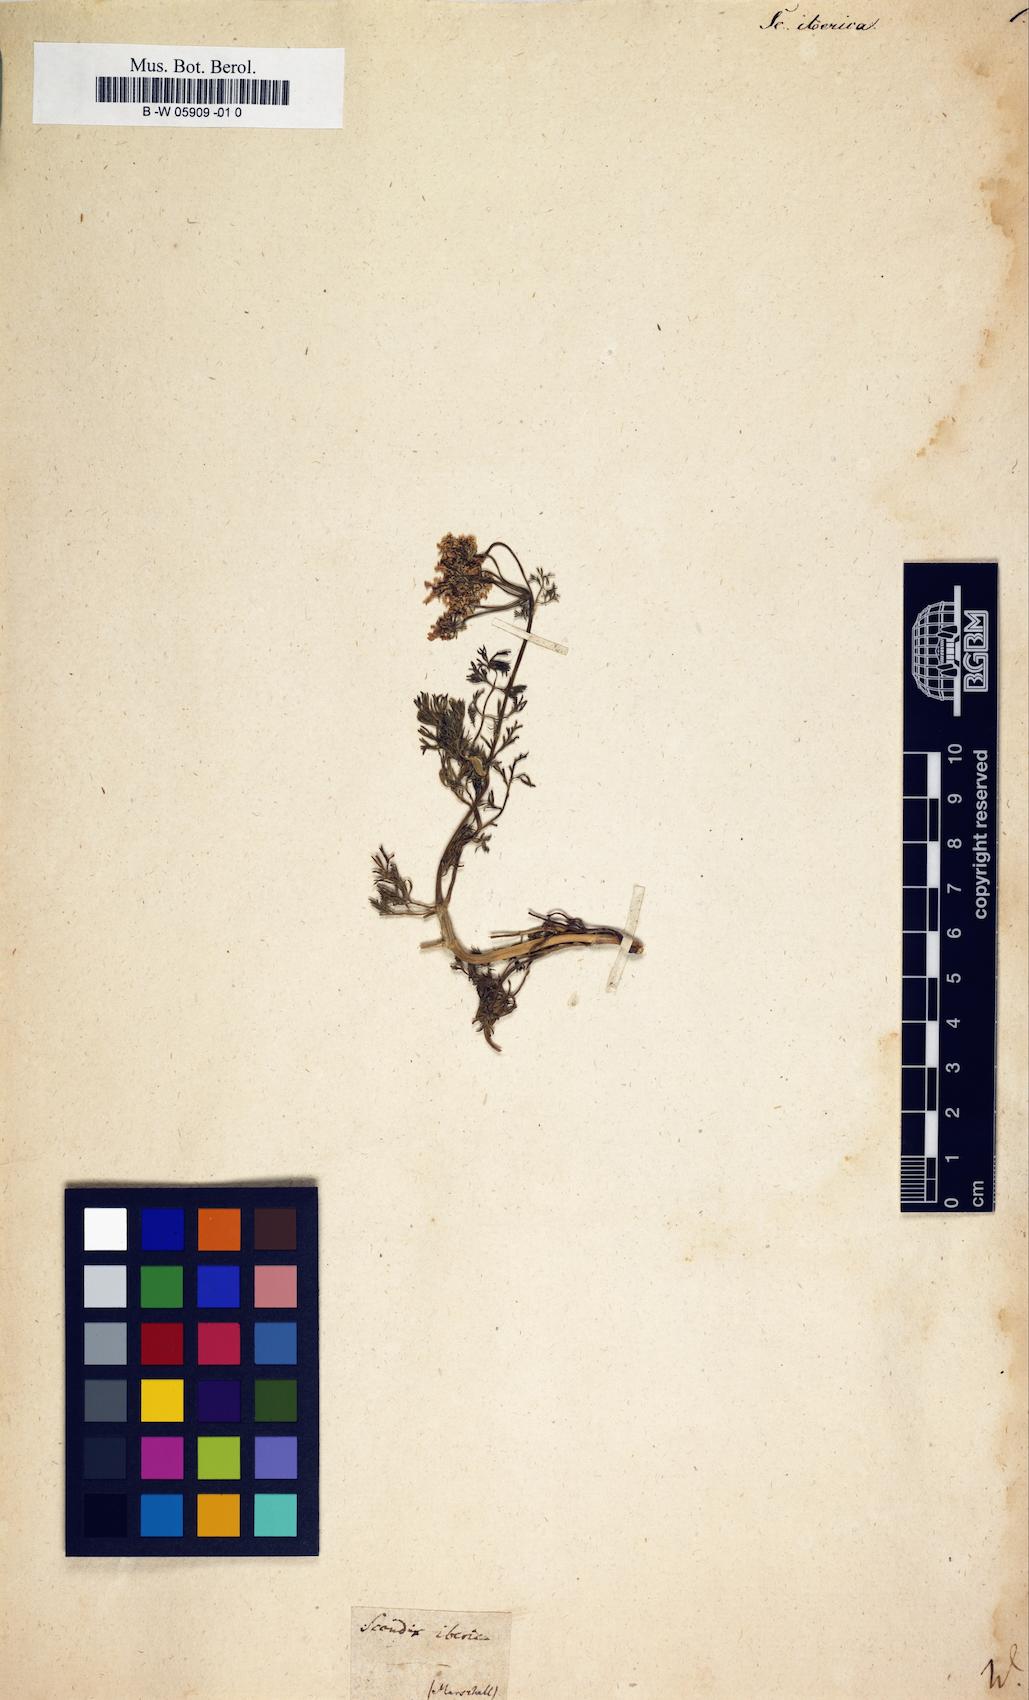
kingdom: Plantae
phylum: Tracheophyta
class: Magnoliopsida
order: Apiales
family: Apiaceae
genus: Scandix
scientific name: Scandix iberica
